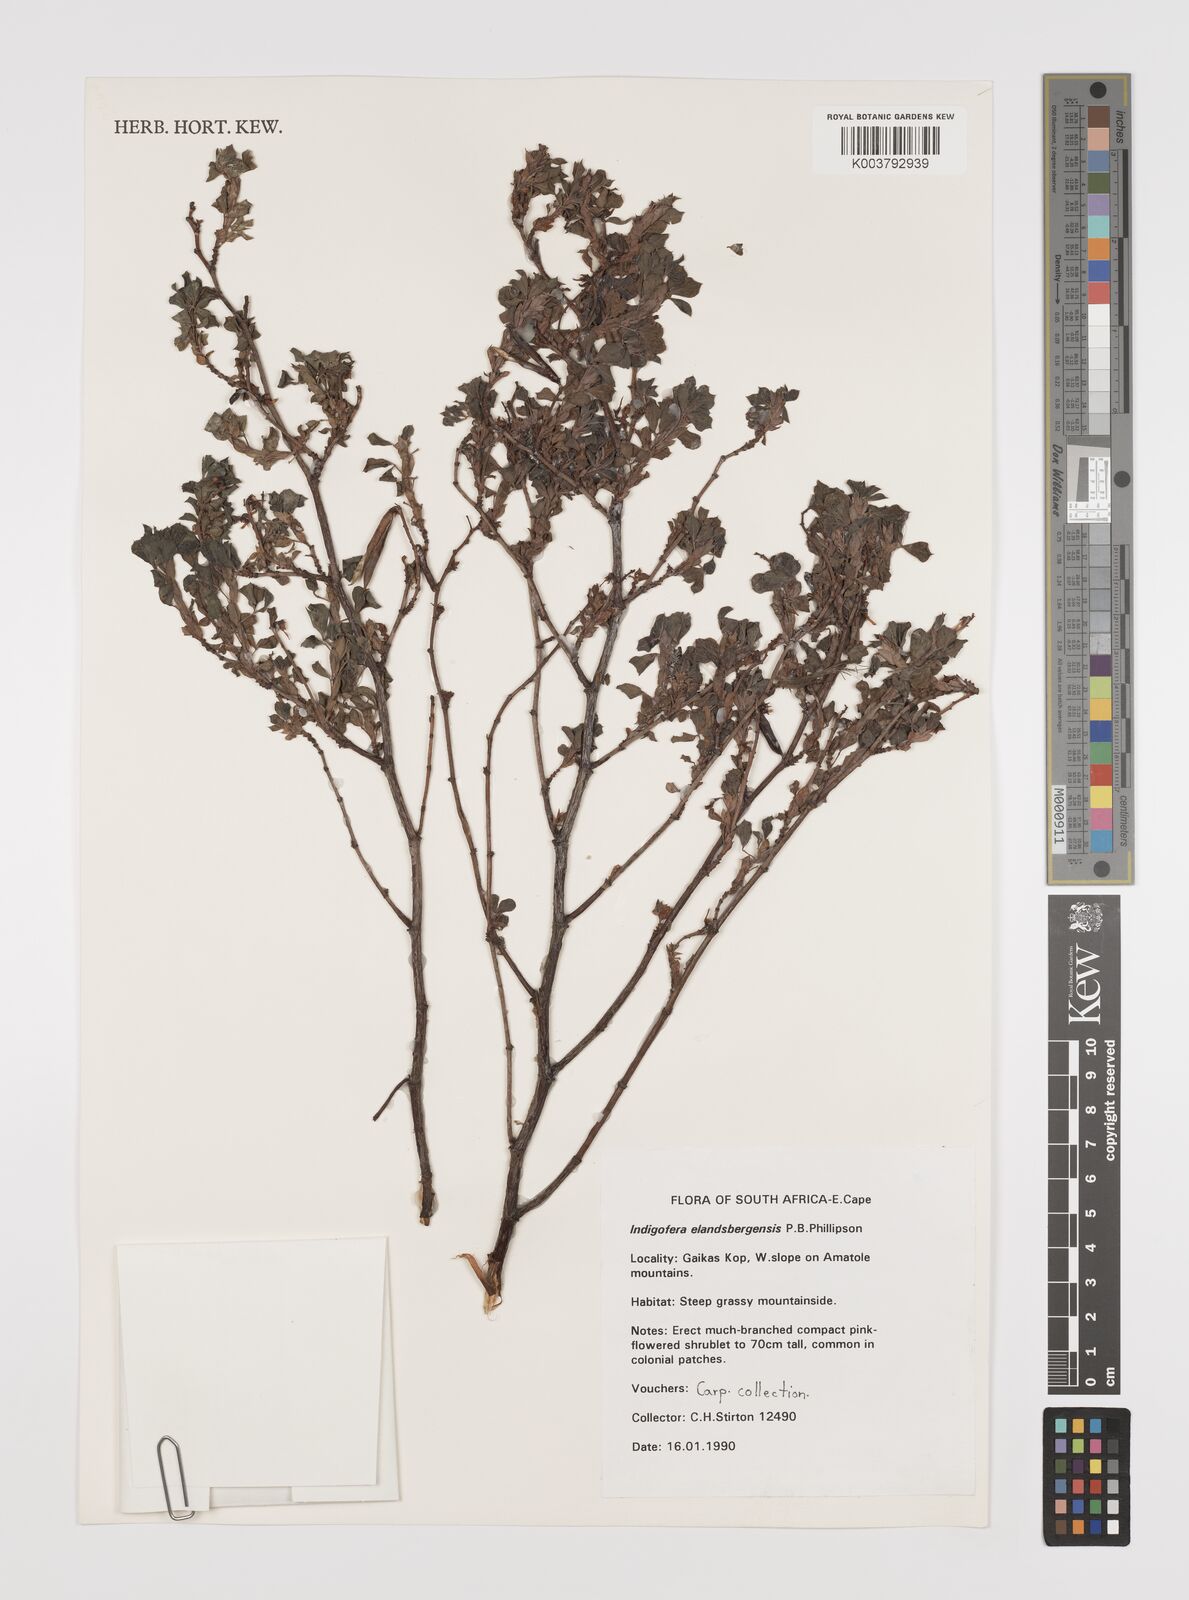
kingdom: Plantae
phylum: Tracheophyta
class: Magnoliopsida
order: Fabales
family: Fabaceae
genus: Indigofera
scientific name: Indigofera elandsbergensis
